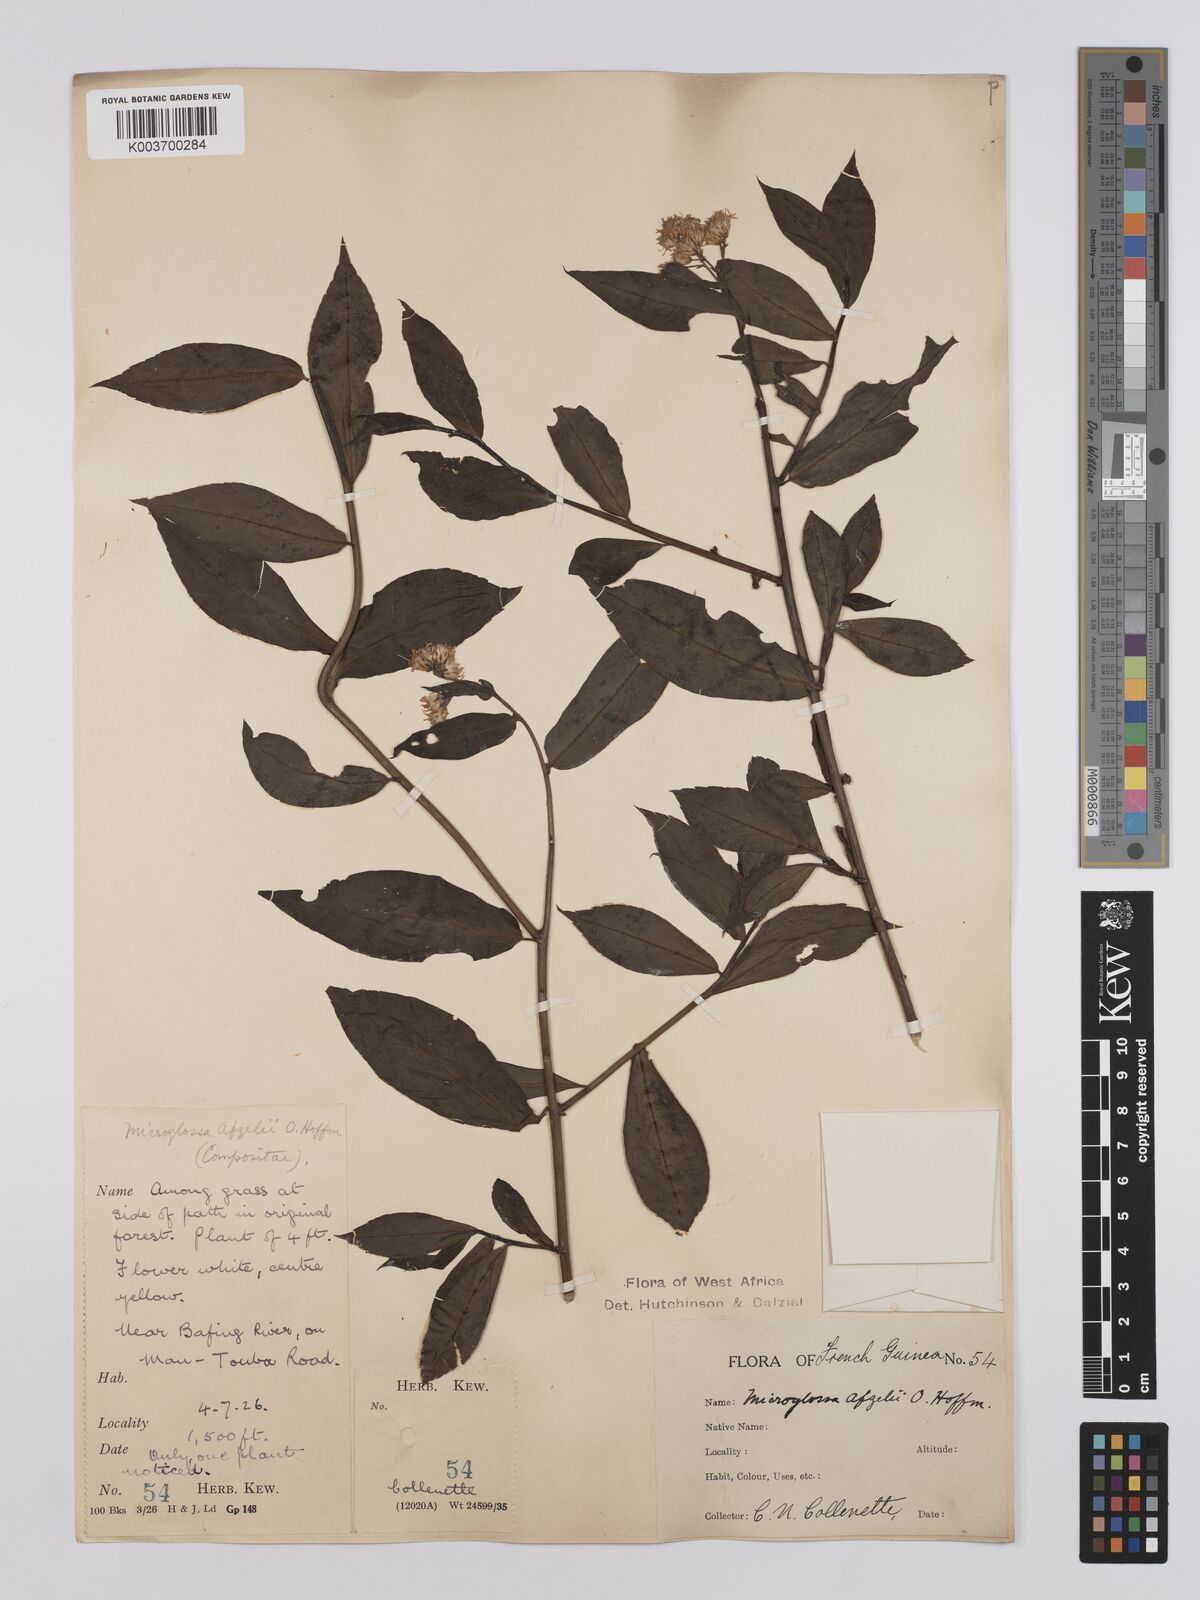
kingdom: Plantae
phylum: Tracheophyta
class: Magnoliopsida
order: Asterales
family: Asteraceae
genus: Microglossa
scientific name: Microglossa afzelii
